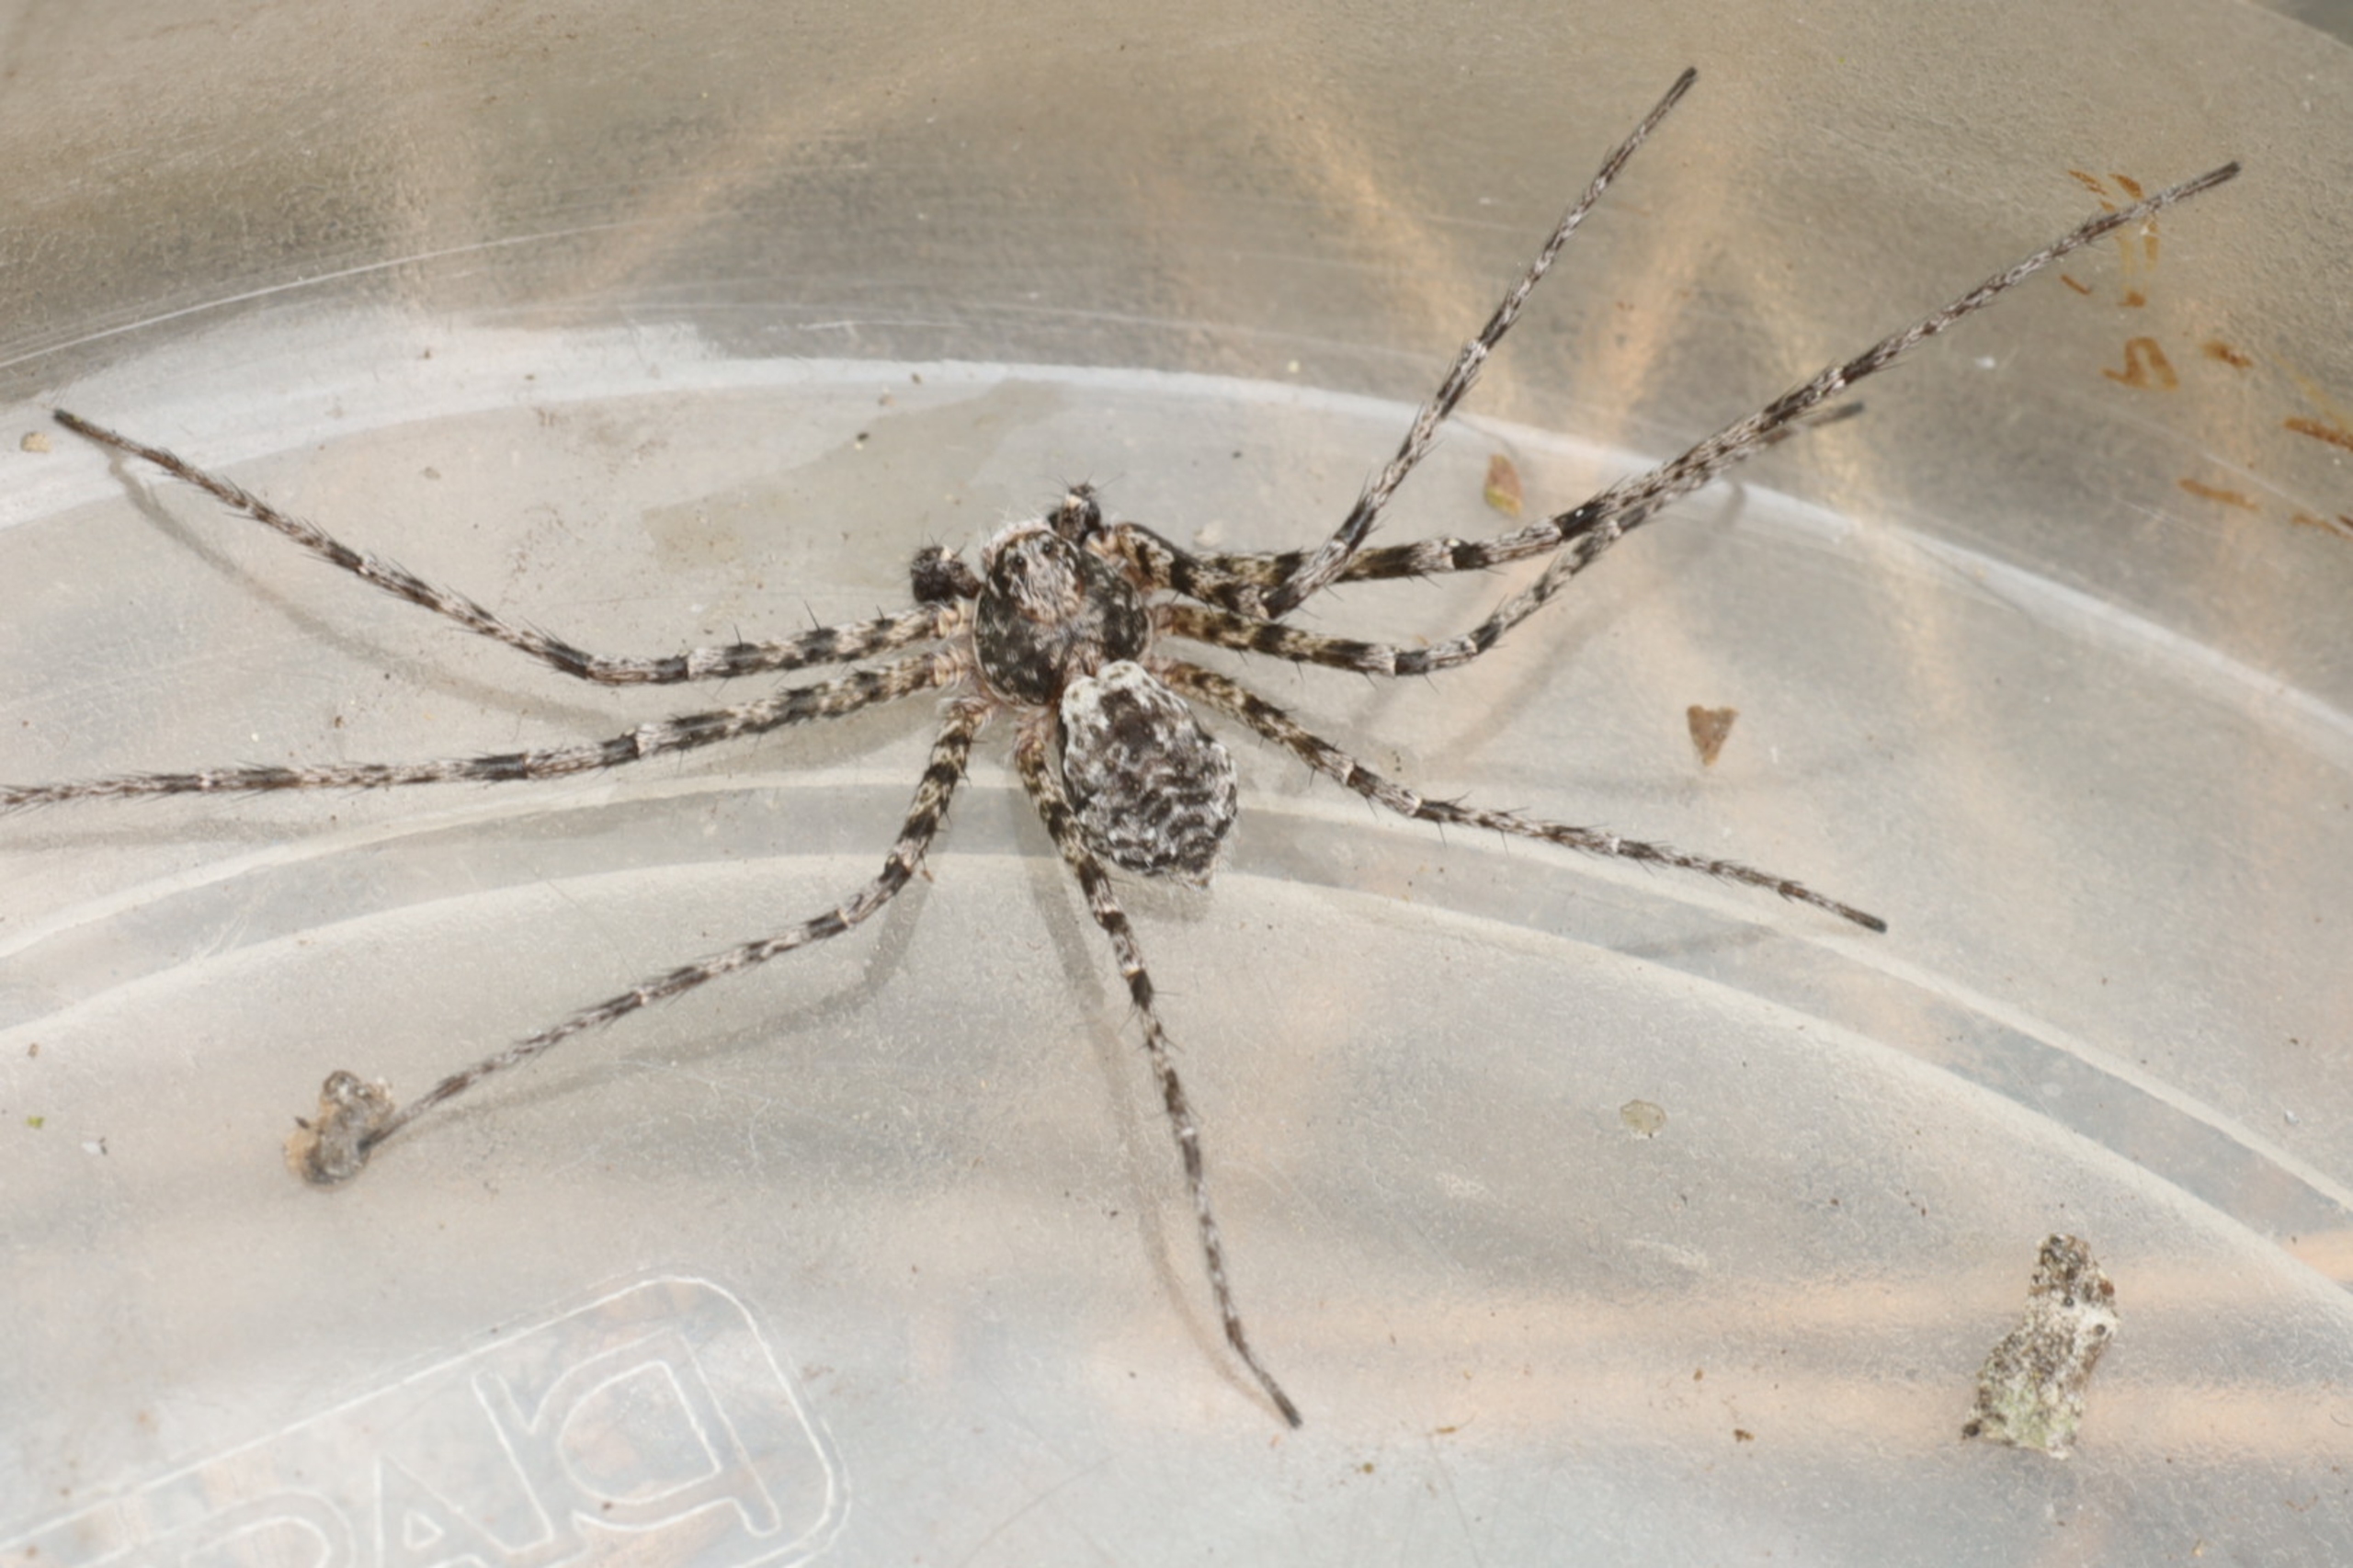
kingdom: Animalia
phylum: Arthropoda
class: Arachnida
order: Araneae
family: Philodromidae
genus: Philodromus
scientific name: Philodromus margaritatus
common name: Dødningehoved-edderkop
